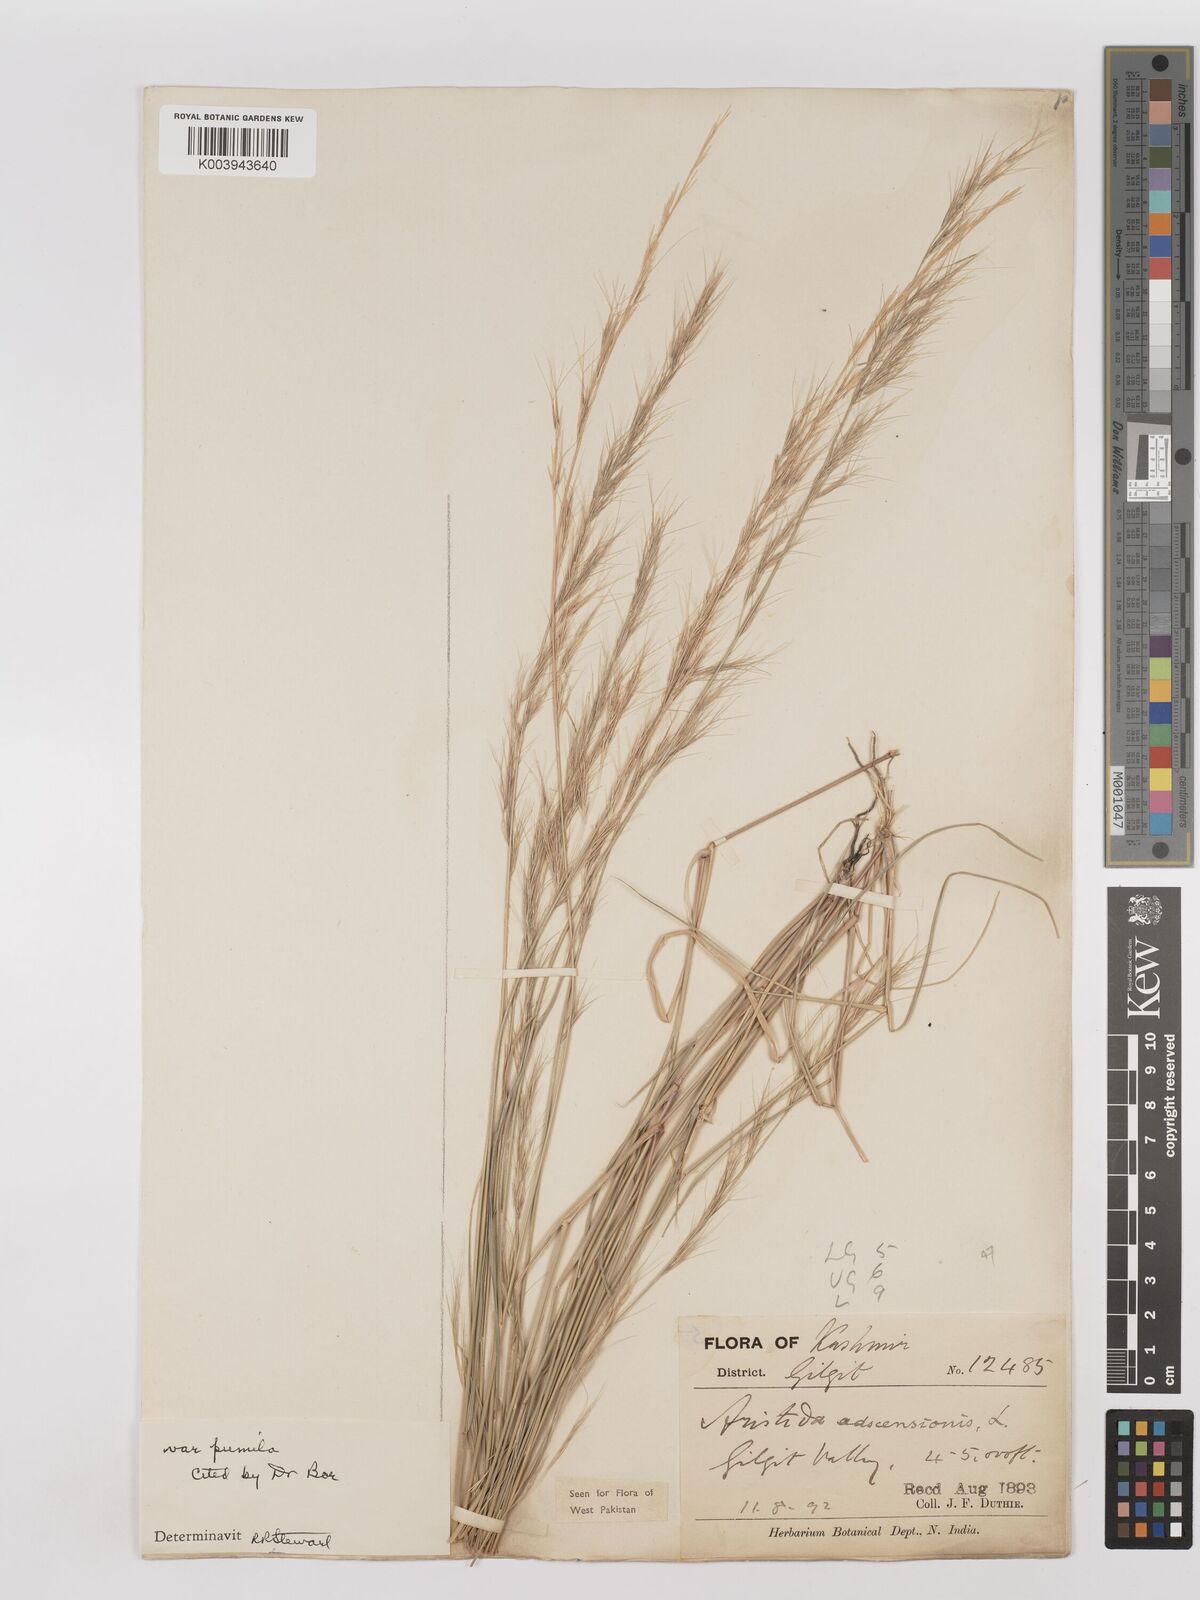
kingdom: Plantae
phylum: Tracheophyta
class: Liliopsida
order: Poales
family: Poaceae
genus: Aristida
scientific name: Aristida adscensionis
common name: Sixweeks threeawn
